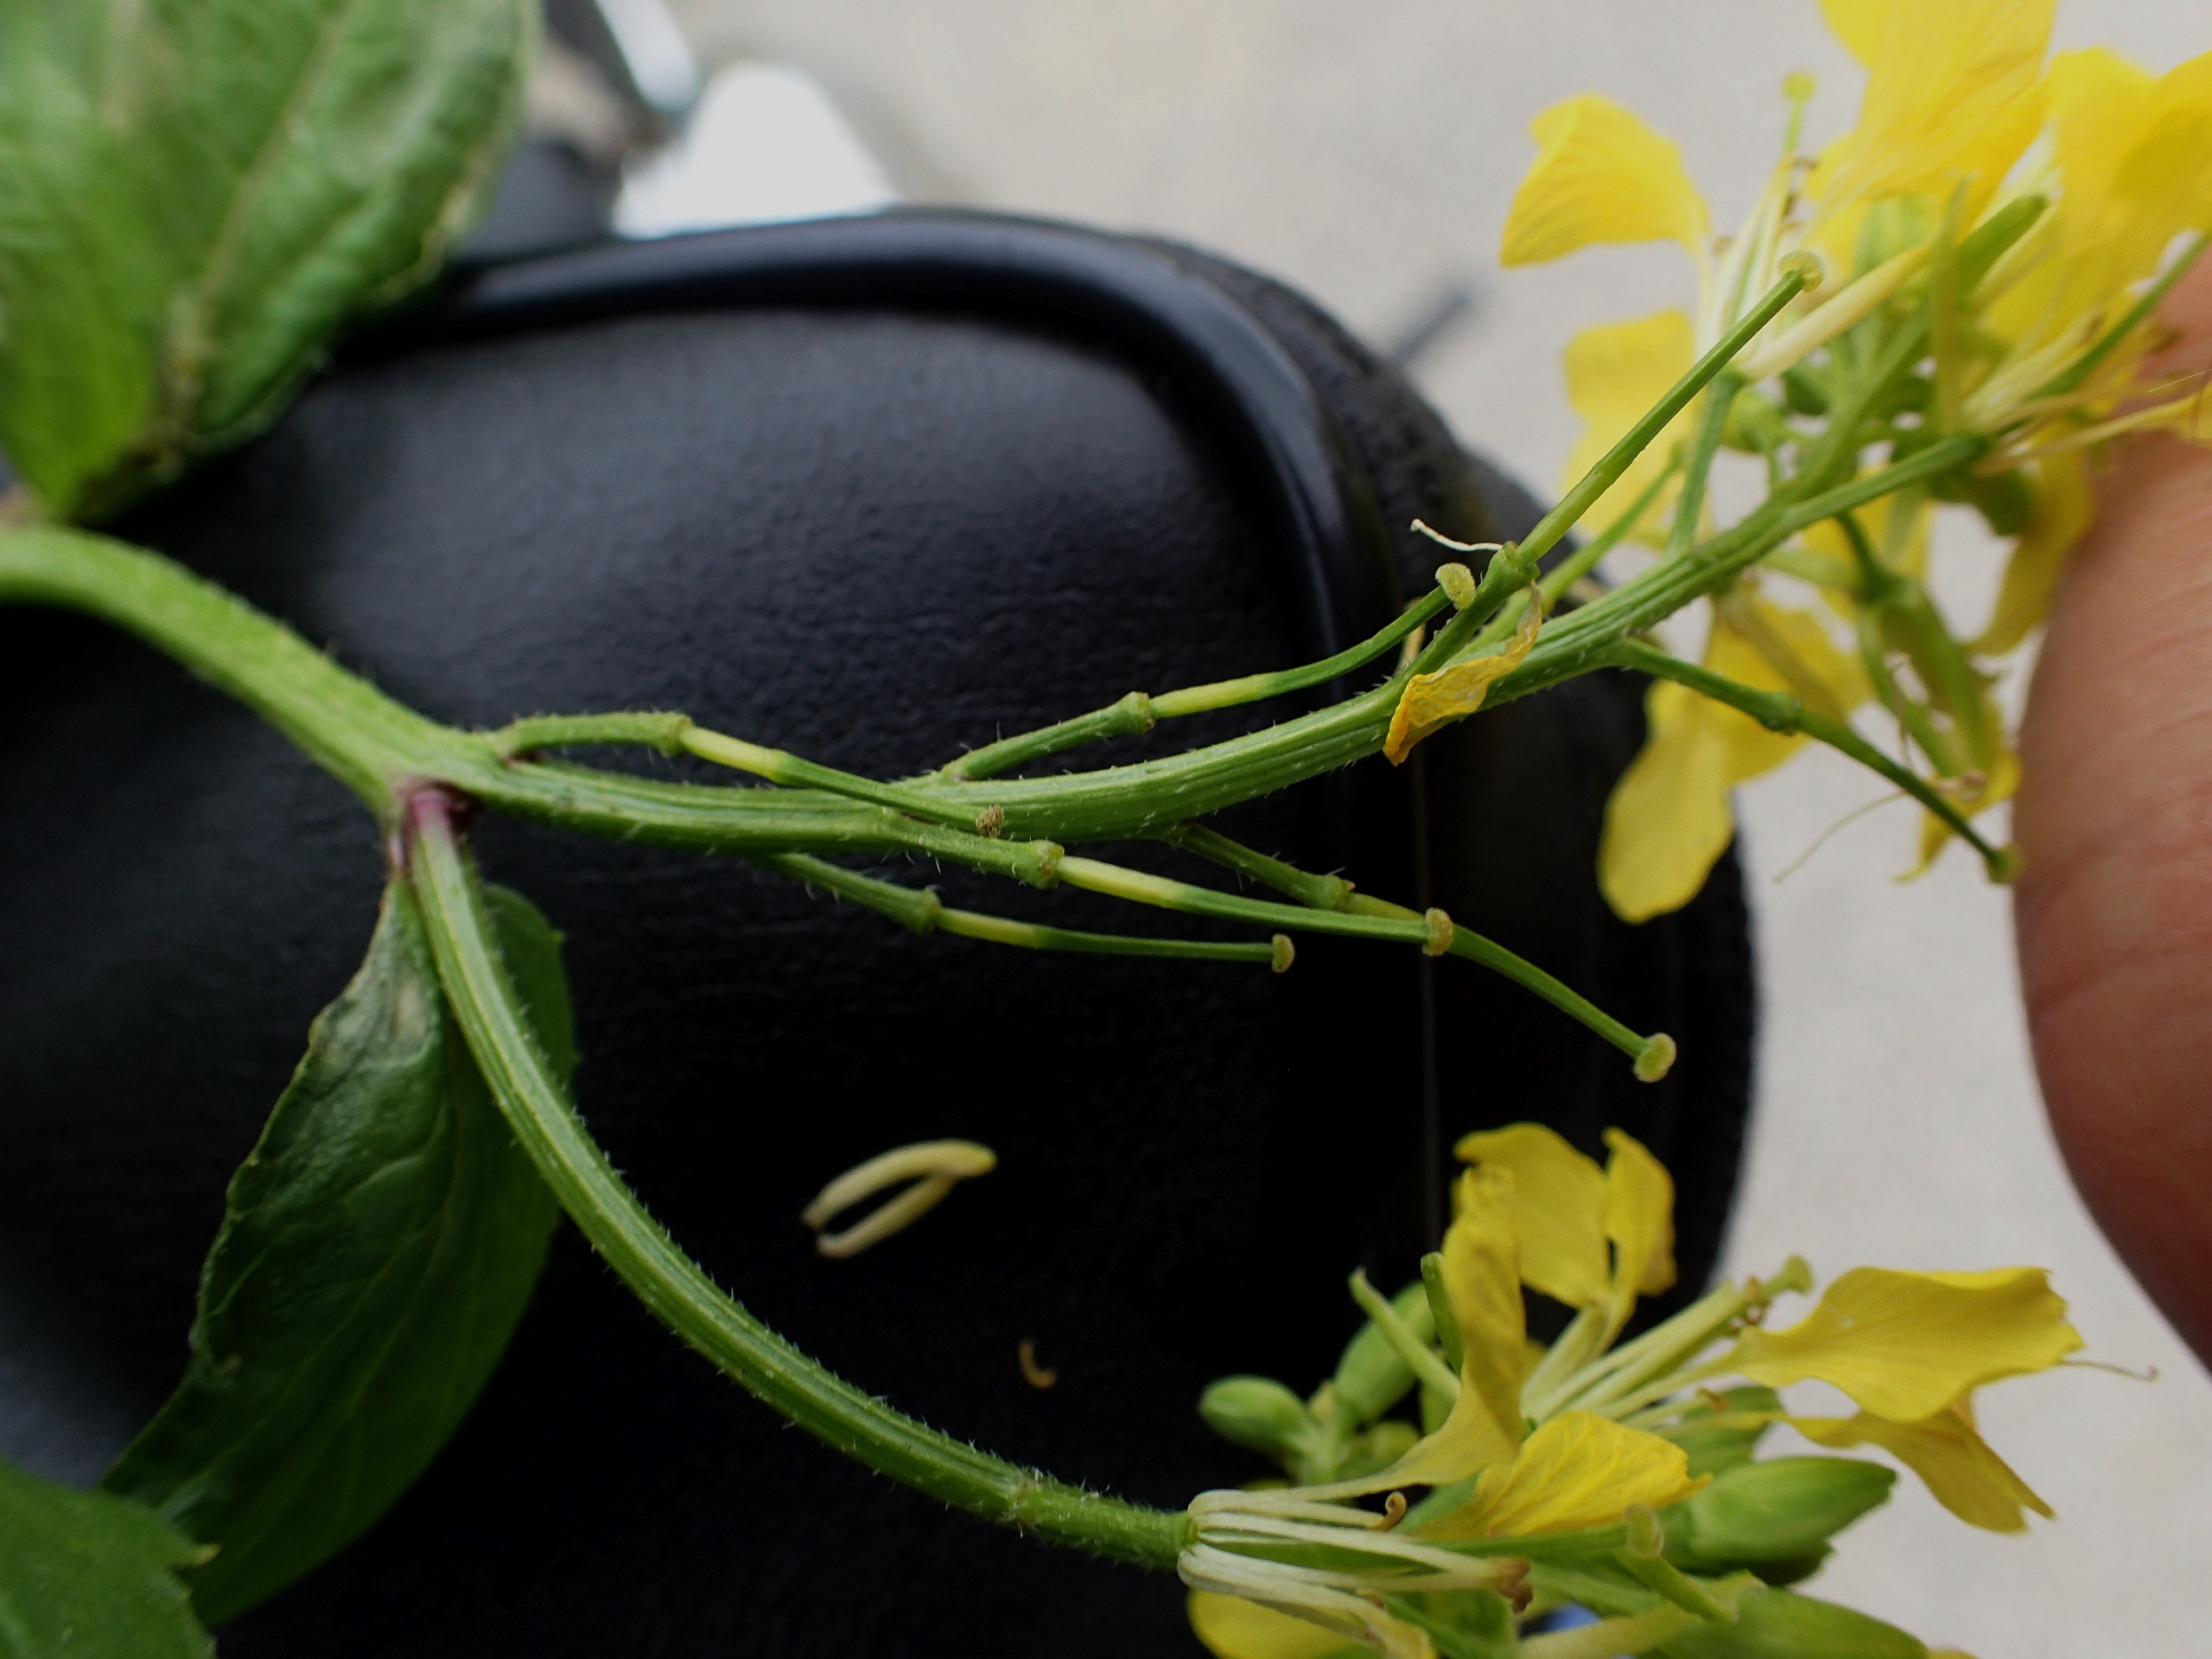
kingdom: Plantae
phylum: Tracheophyta
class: Magnoliopsida
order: Brassicales
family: Brassicaceae
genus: Sinapis
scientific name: Sinapis arvensis
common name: Ager-sennep
